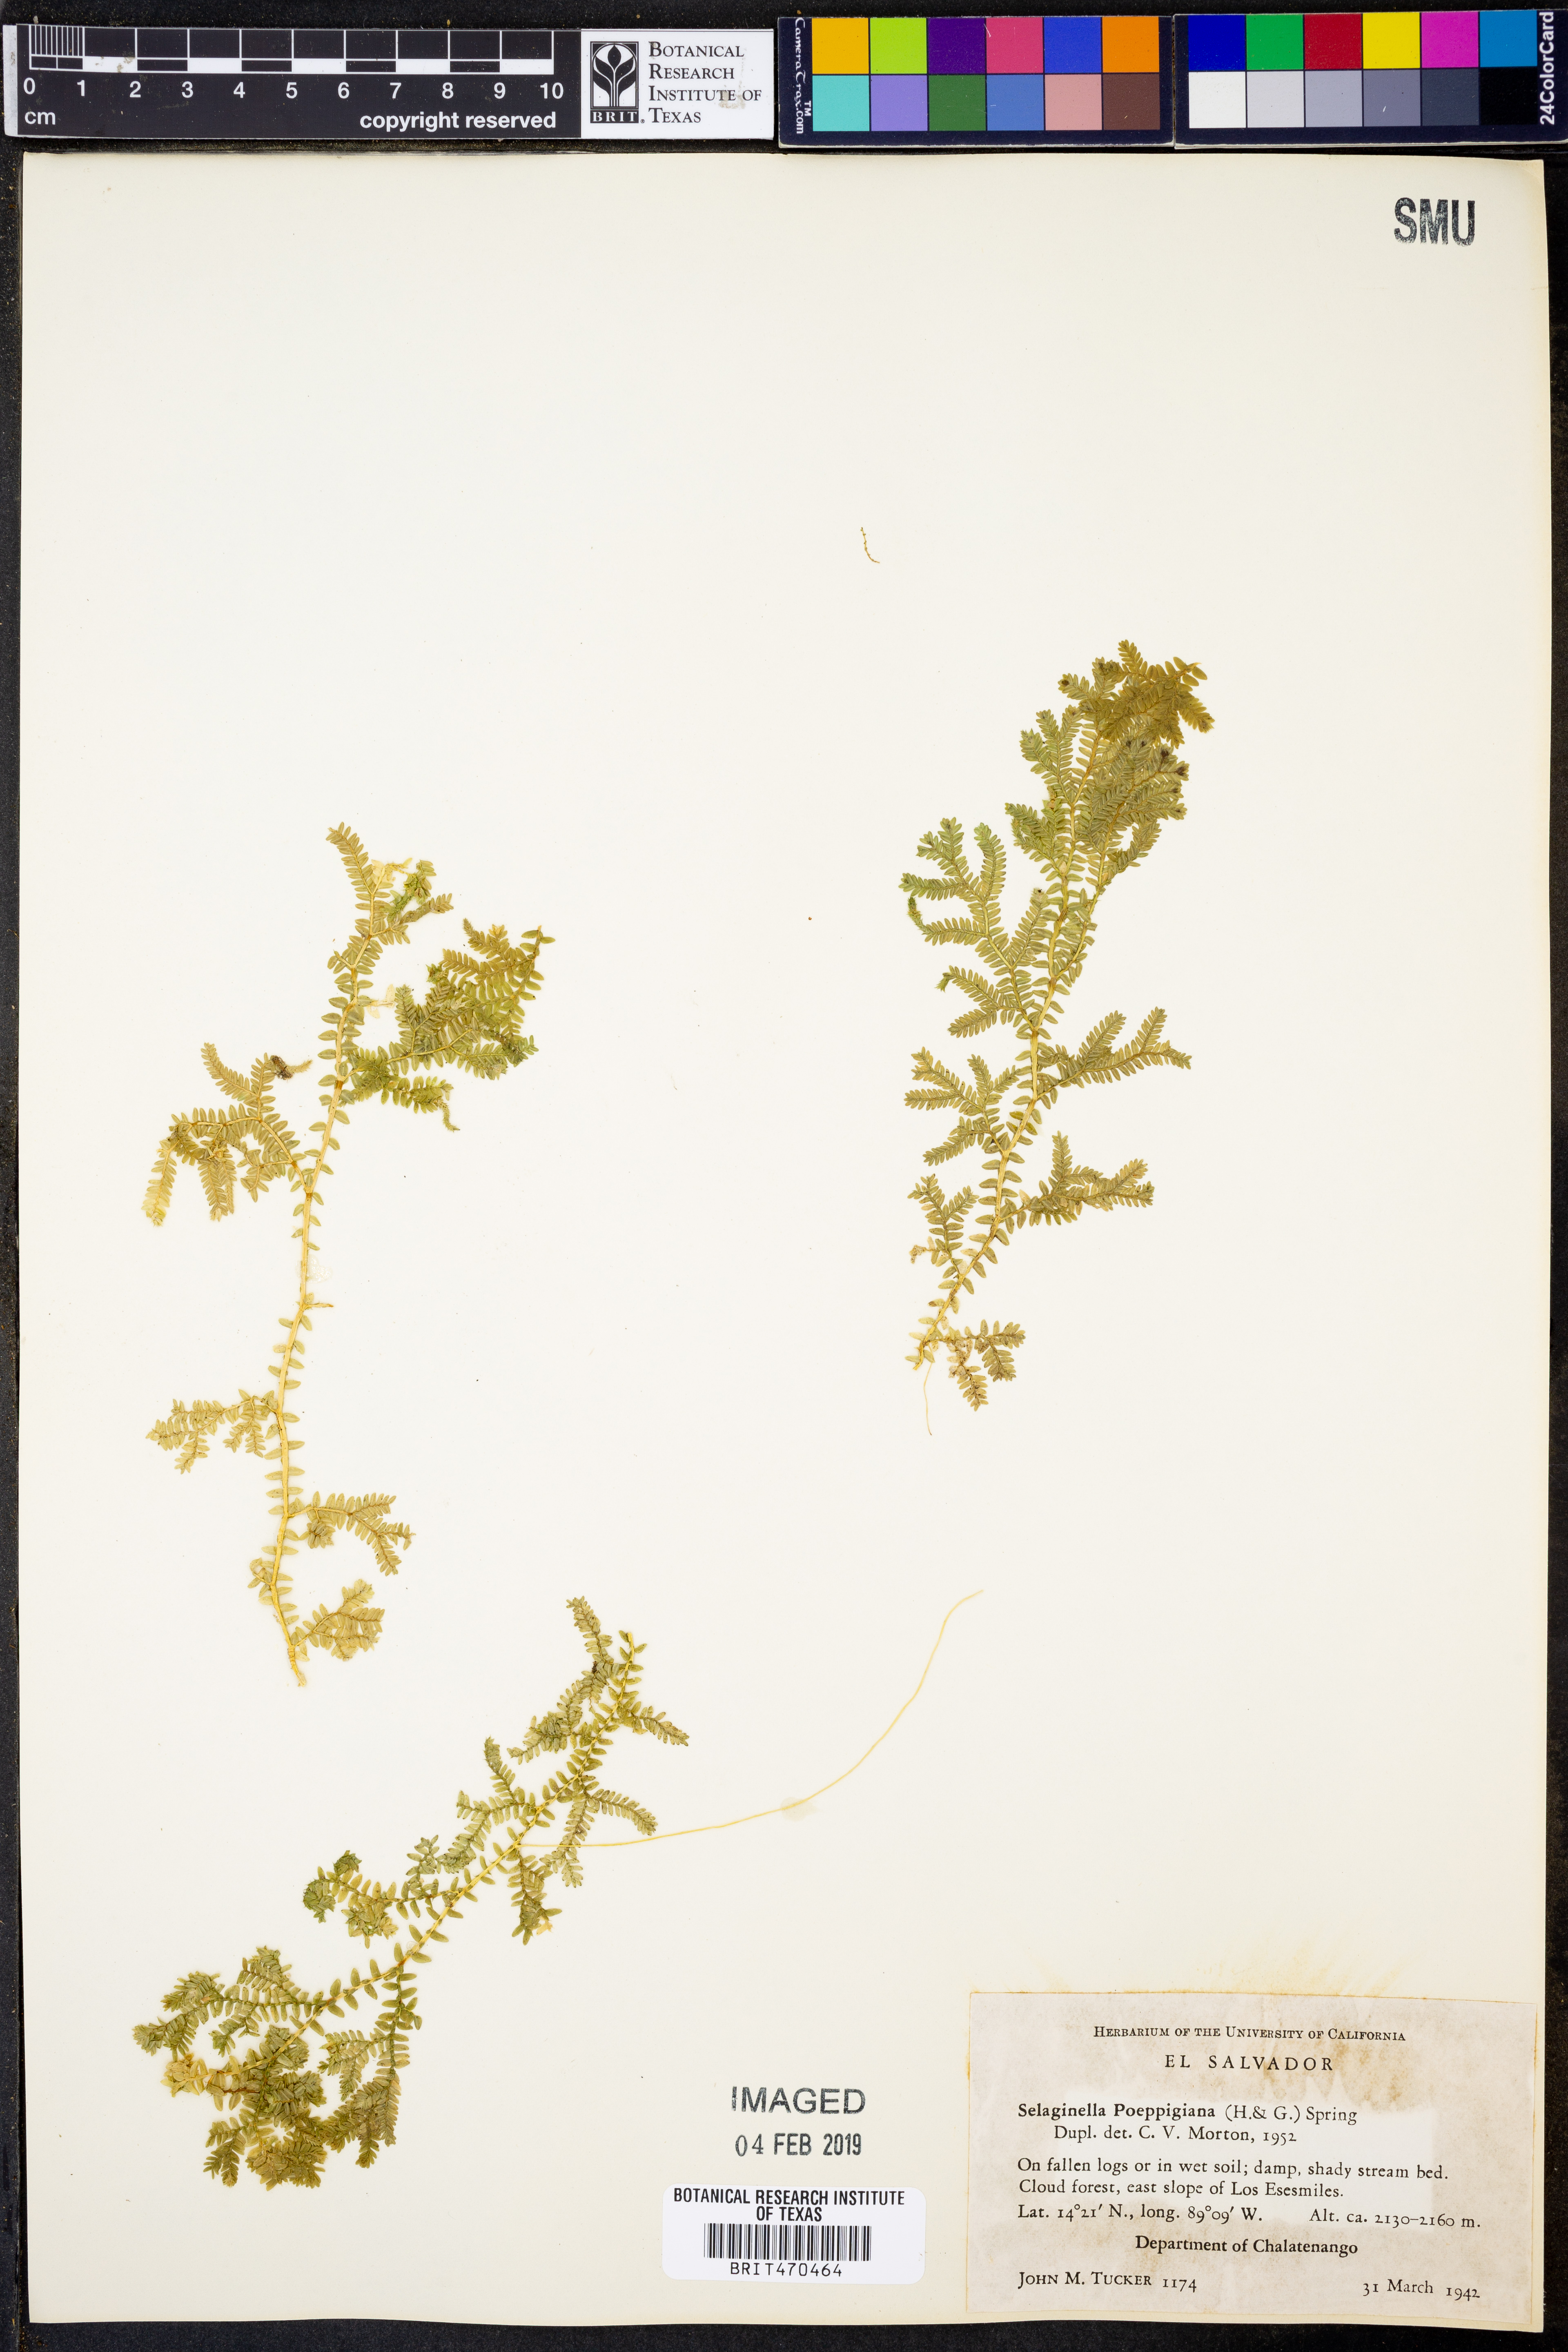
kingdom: Plantae
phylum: Tracheophyta
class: Lycopodiopsida
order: Selaginellales
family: Selaginellaceae
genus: Selaginella
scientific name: Selaginella poeppigiana
